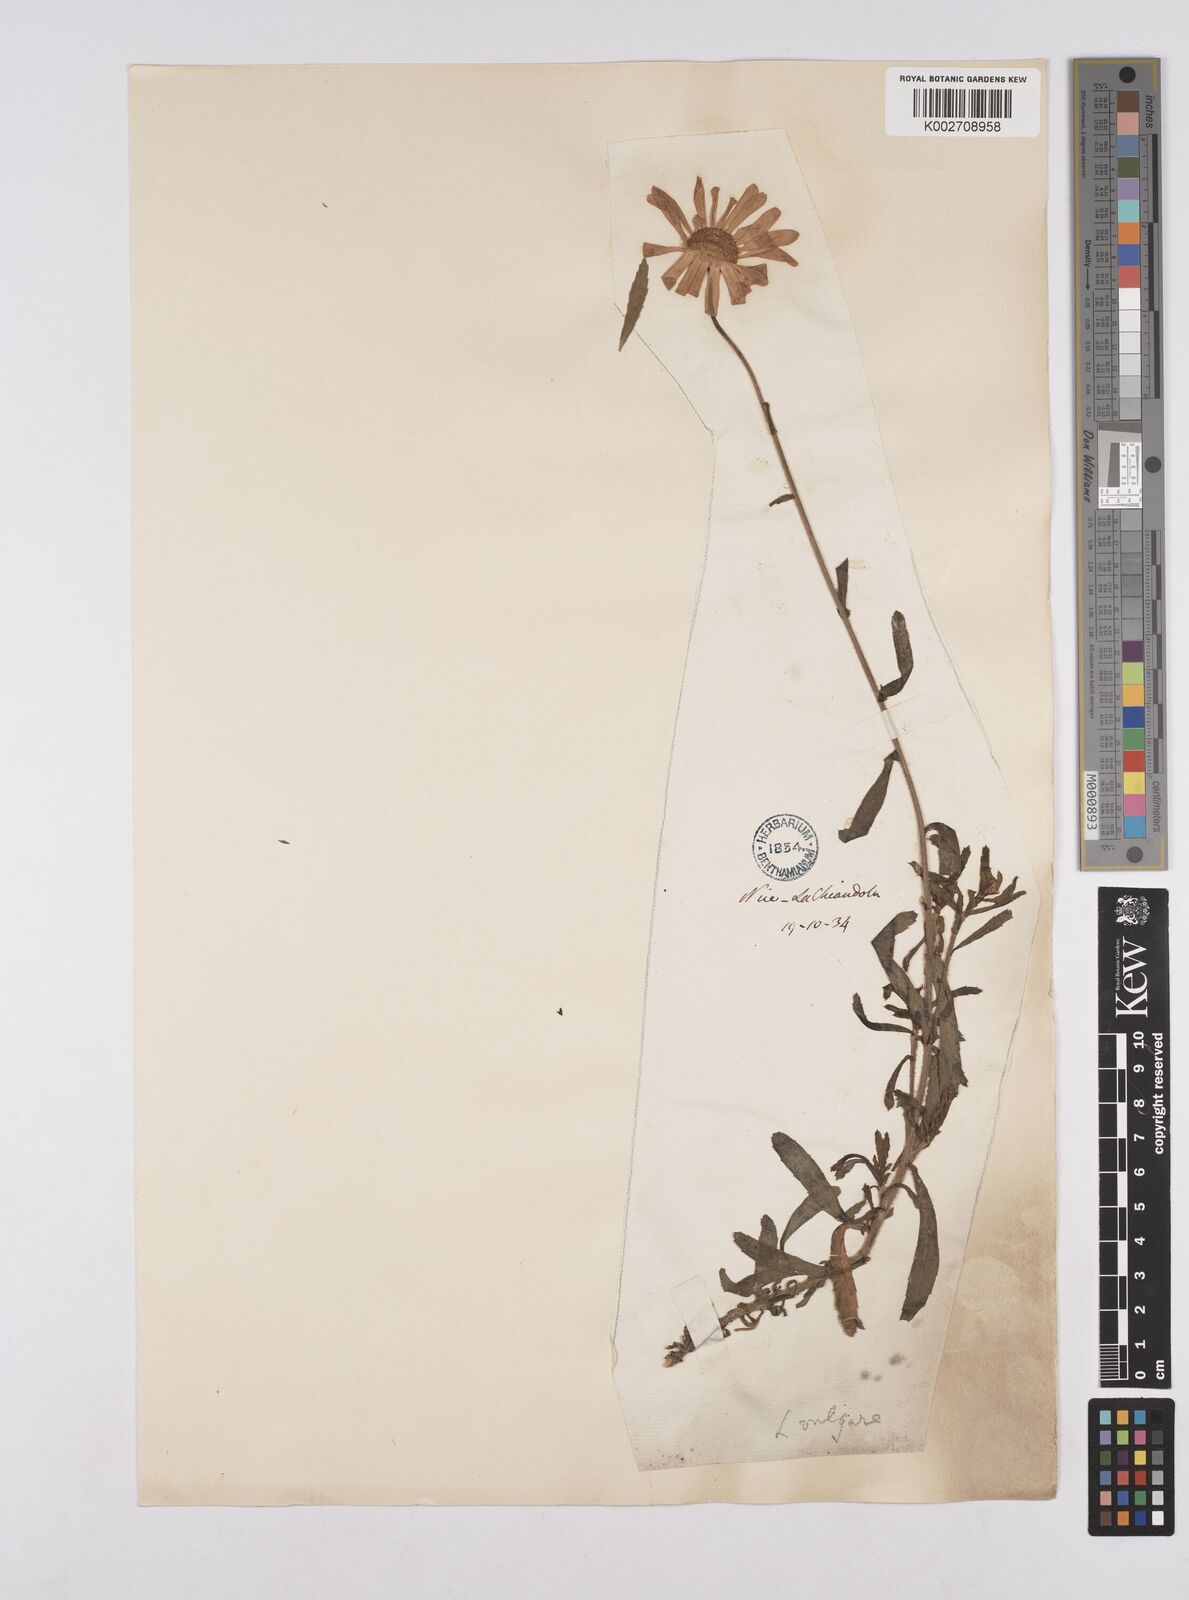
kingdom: Plantae
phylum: Tracheophyta
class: Magnoliopsida
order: Asterales
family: Asteraceae
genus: Leucanthemum
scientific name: Leucanthemum vulgare
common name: Oxeye daisy
